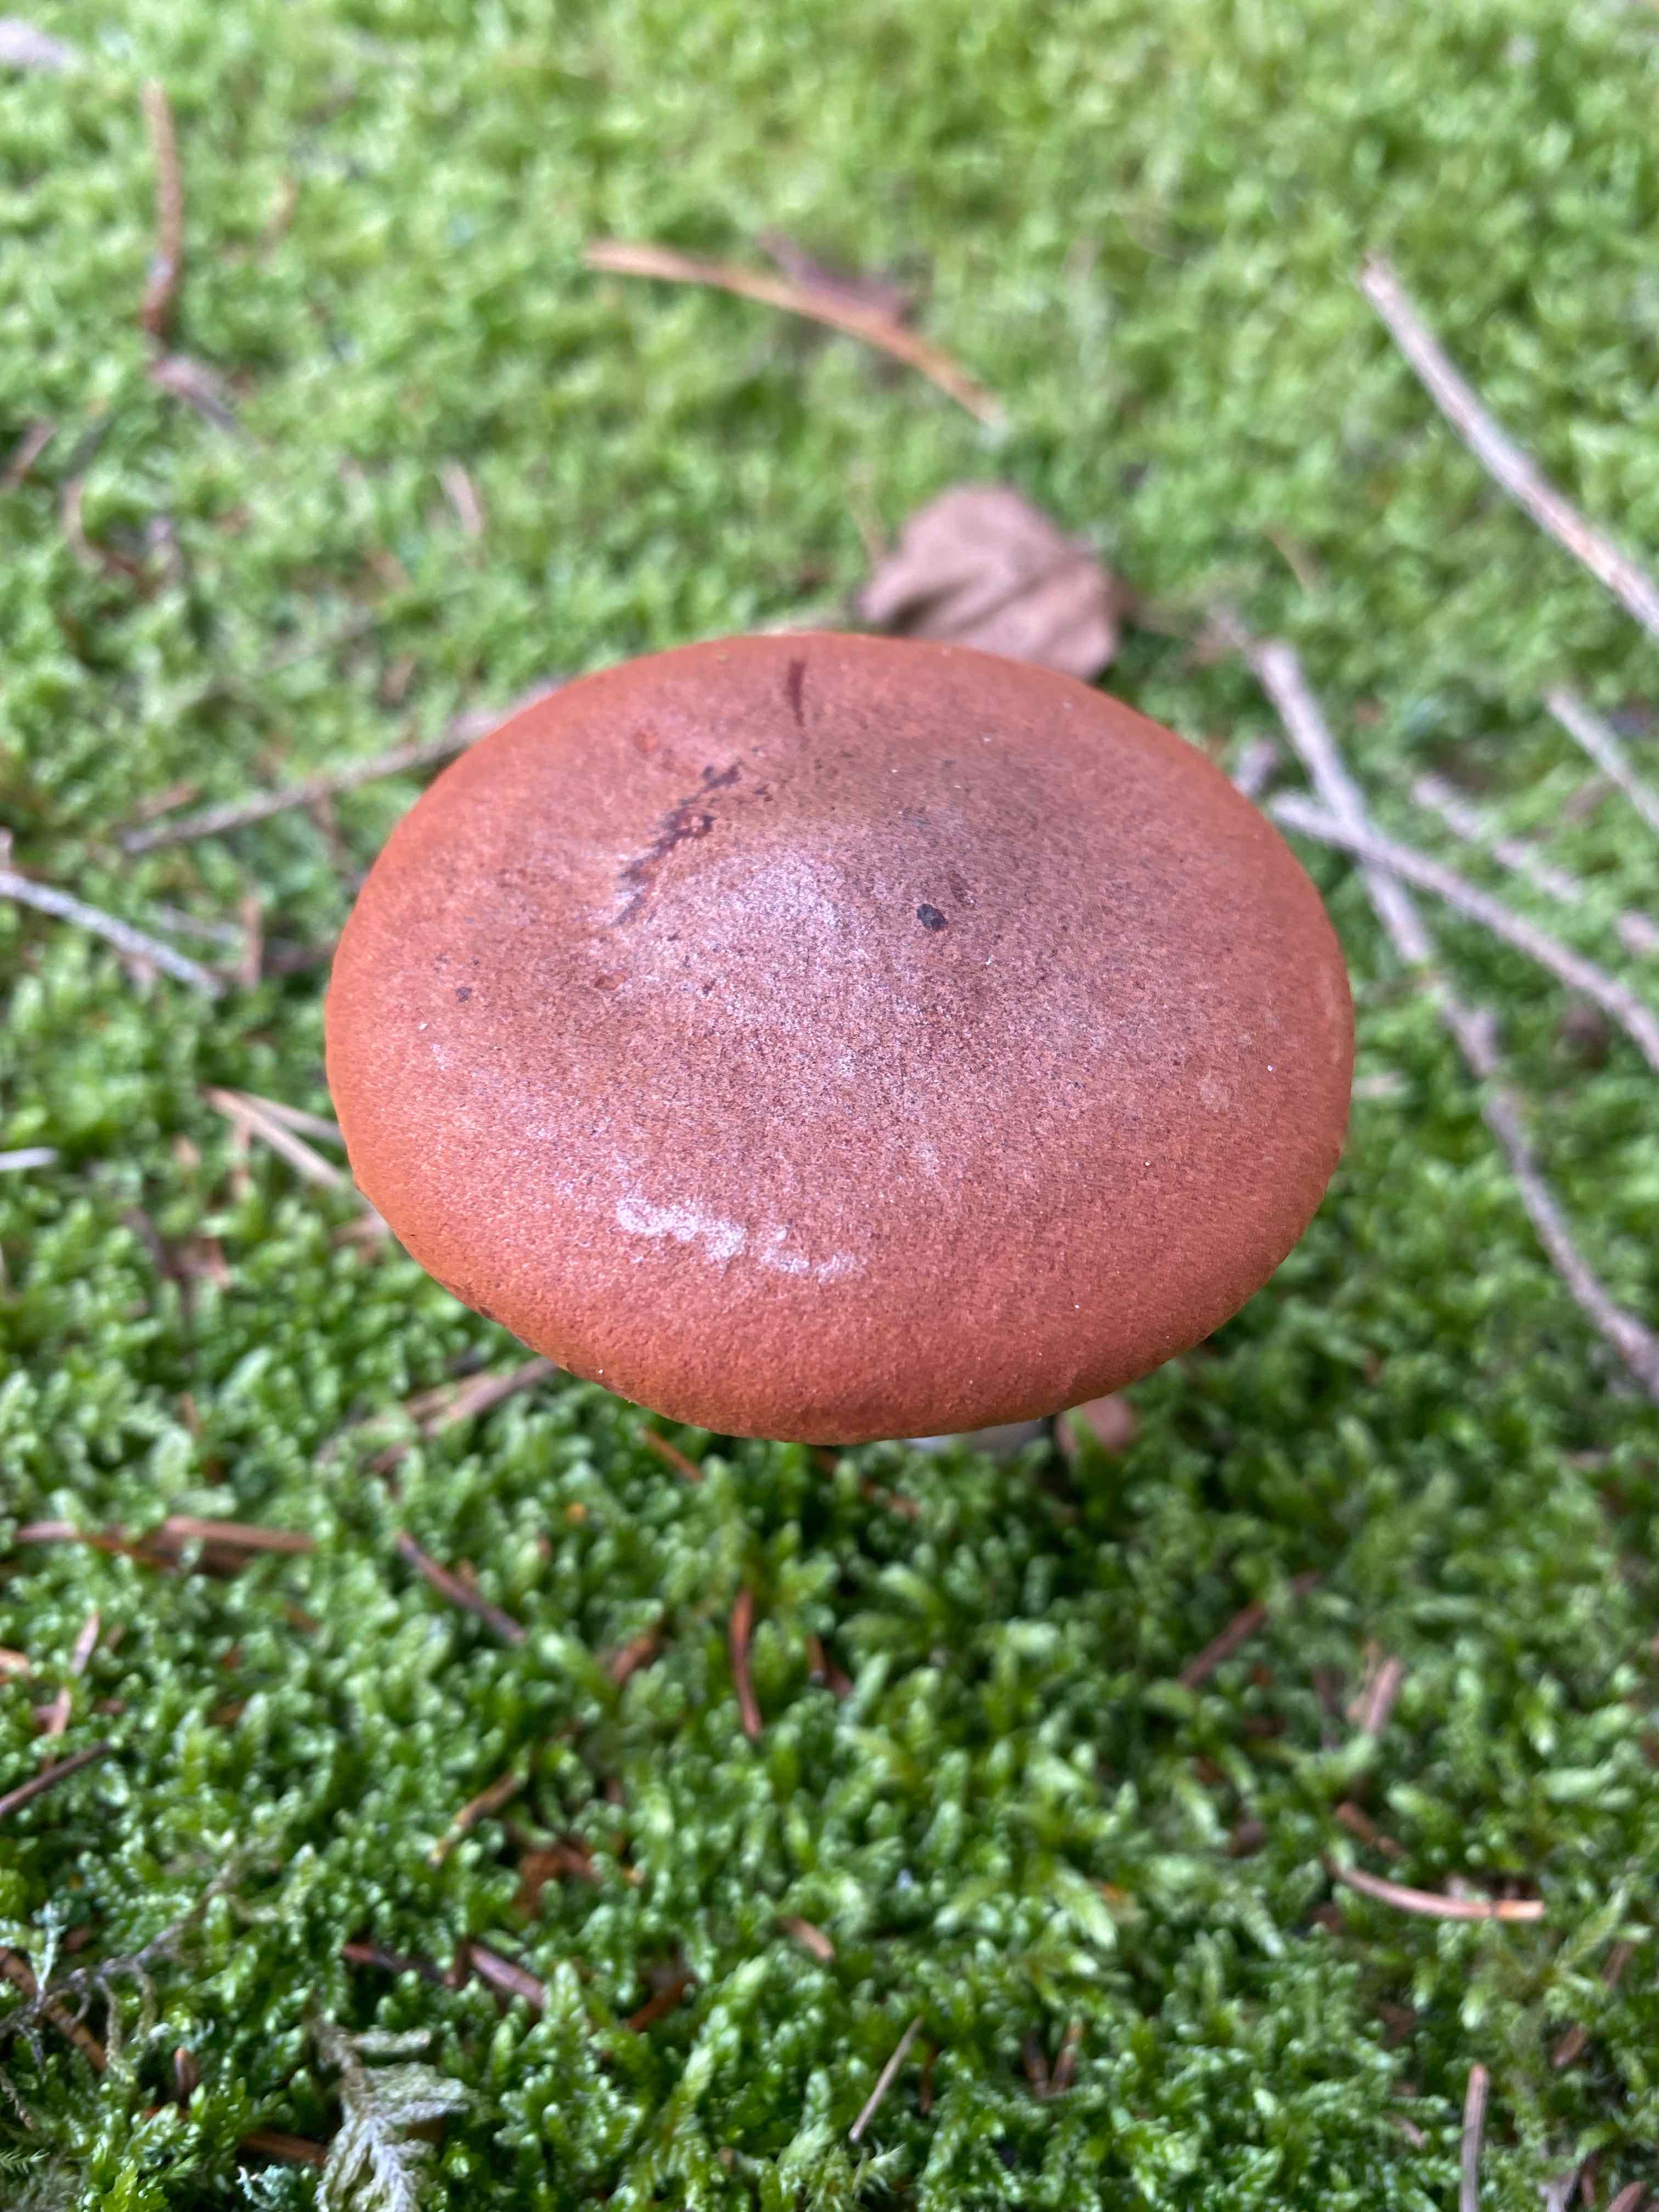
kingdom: Fungi
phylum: Basidiomycota
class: Agaricomycetes
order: Russulales
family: Russulaceae
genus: Lactarius
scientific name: Lactarius rufus
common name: rødbrun mælkehat
